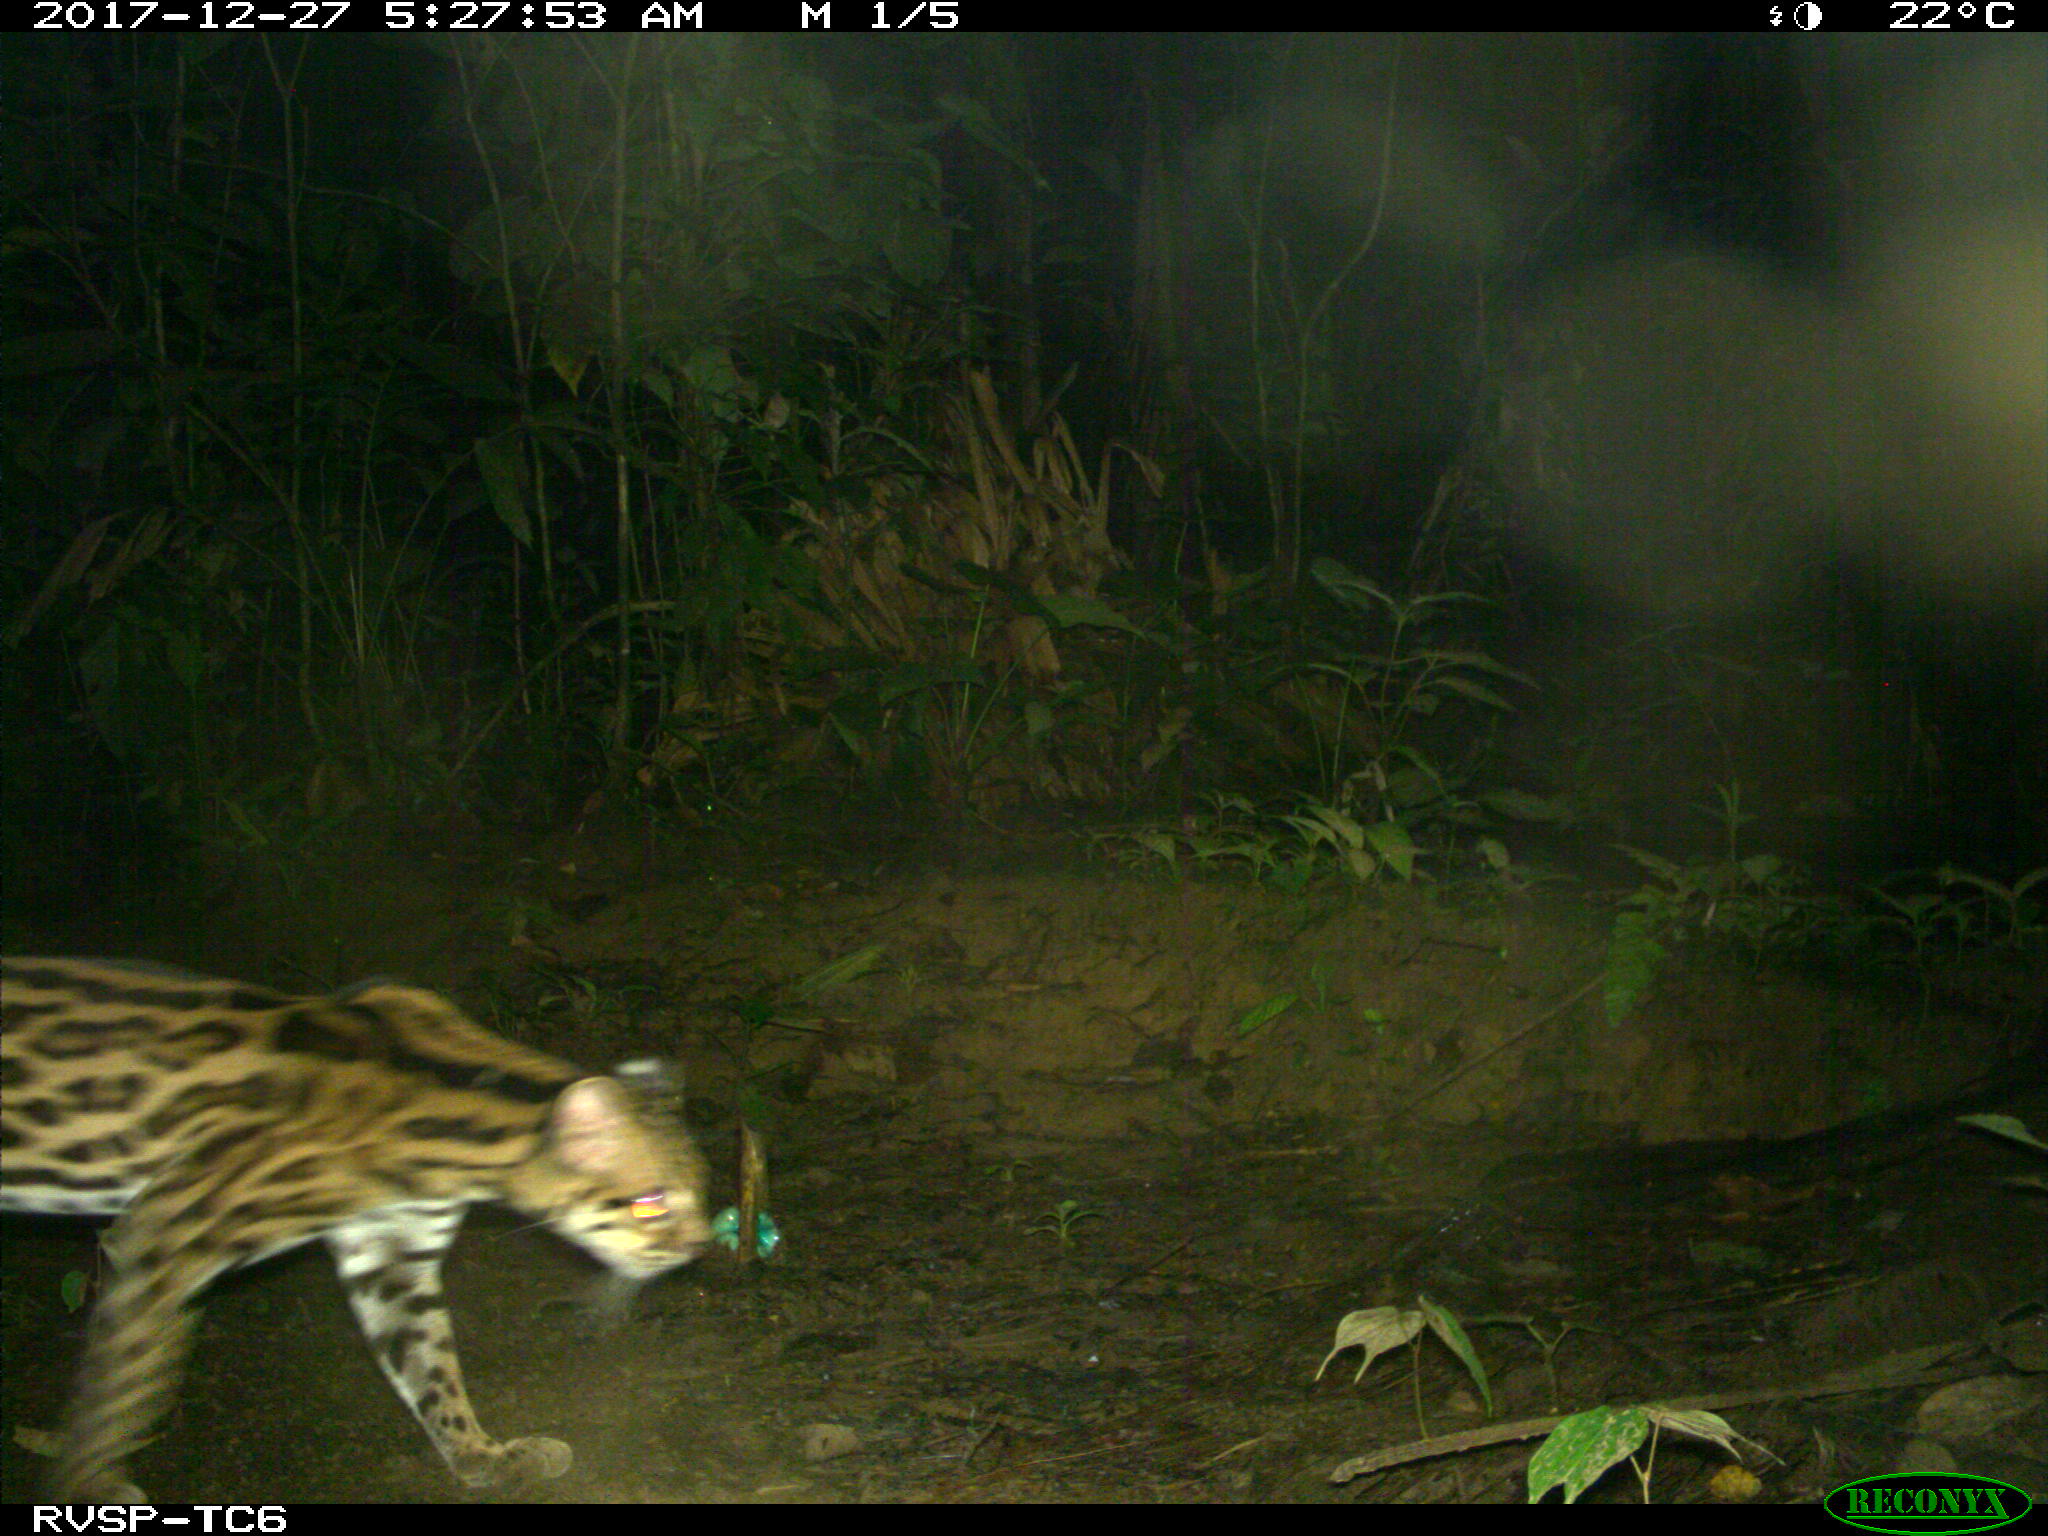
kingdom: Animalia
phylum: Chordata
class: Mammalia
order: Carnivora
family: Felidae
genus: Leopardus
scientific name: Leopardus pardalis
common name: Ocelot
